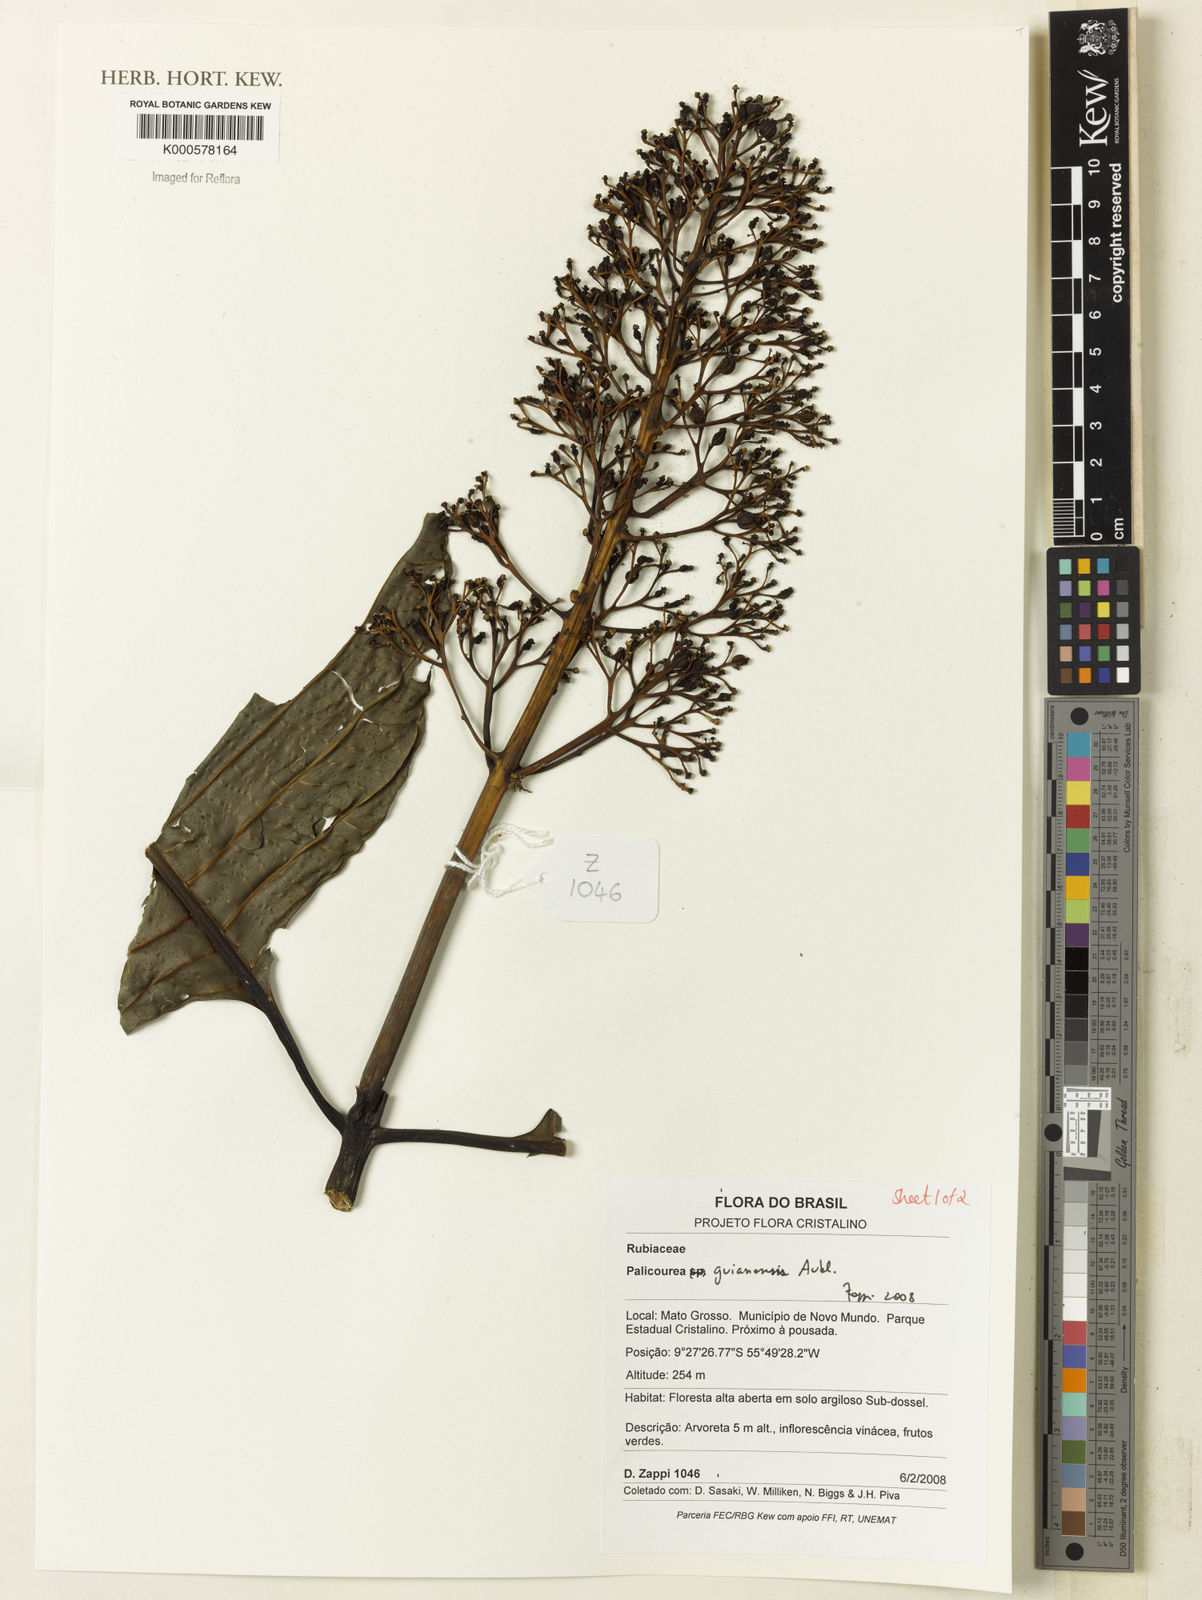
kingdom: Plantae
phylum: Tracheophyta
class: Magnoliopsida
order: Gentianales
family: Rubiaceae
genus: Palicourea
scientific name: Palicourea guianensis
